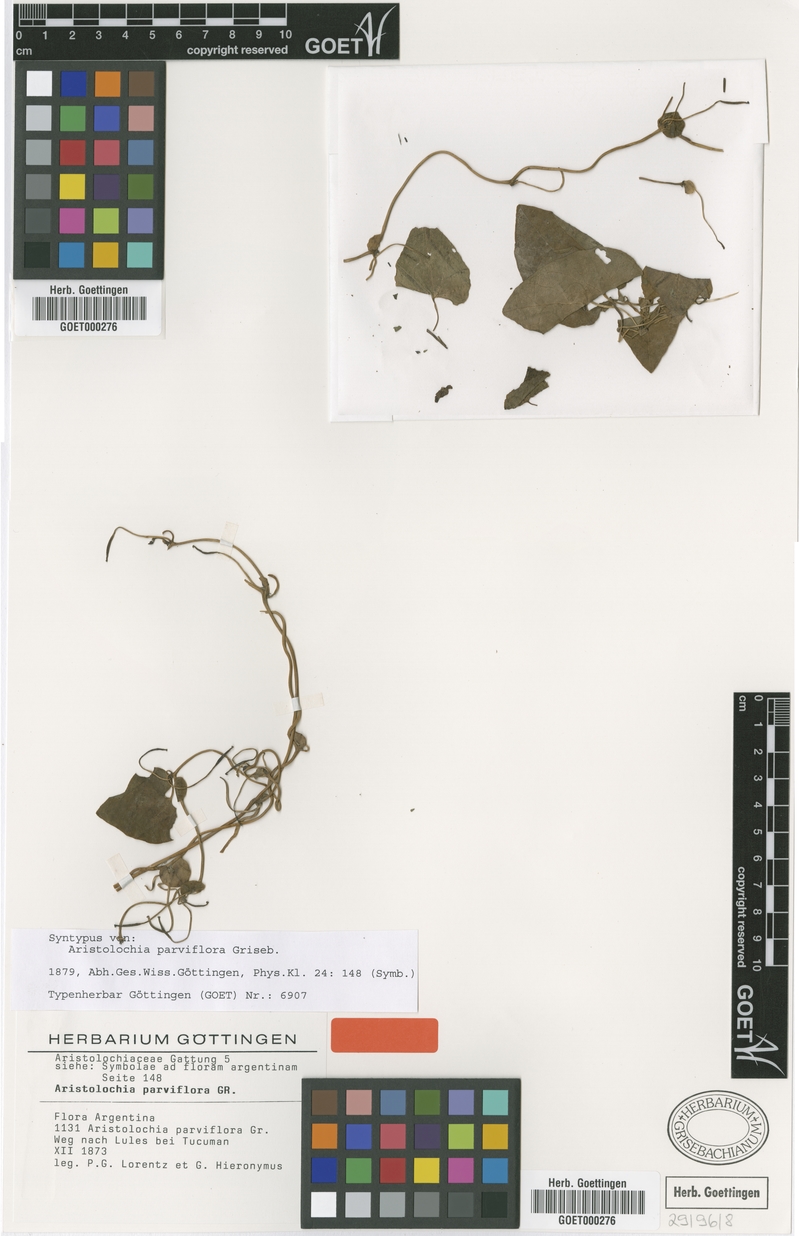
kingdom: Plantae
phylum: Tracheophyta
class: Magnoliopsida
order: Piperales
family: Aristolochiaceae
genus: Aristolochia
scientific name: Aristolochia argentina
